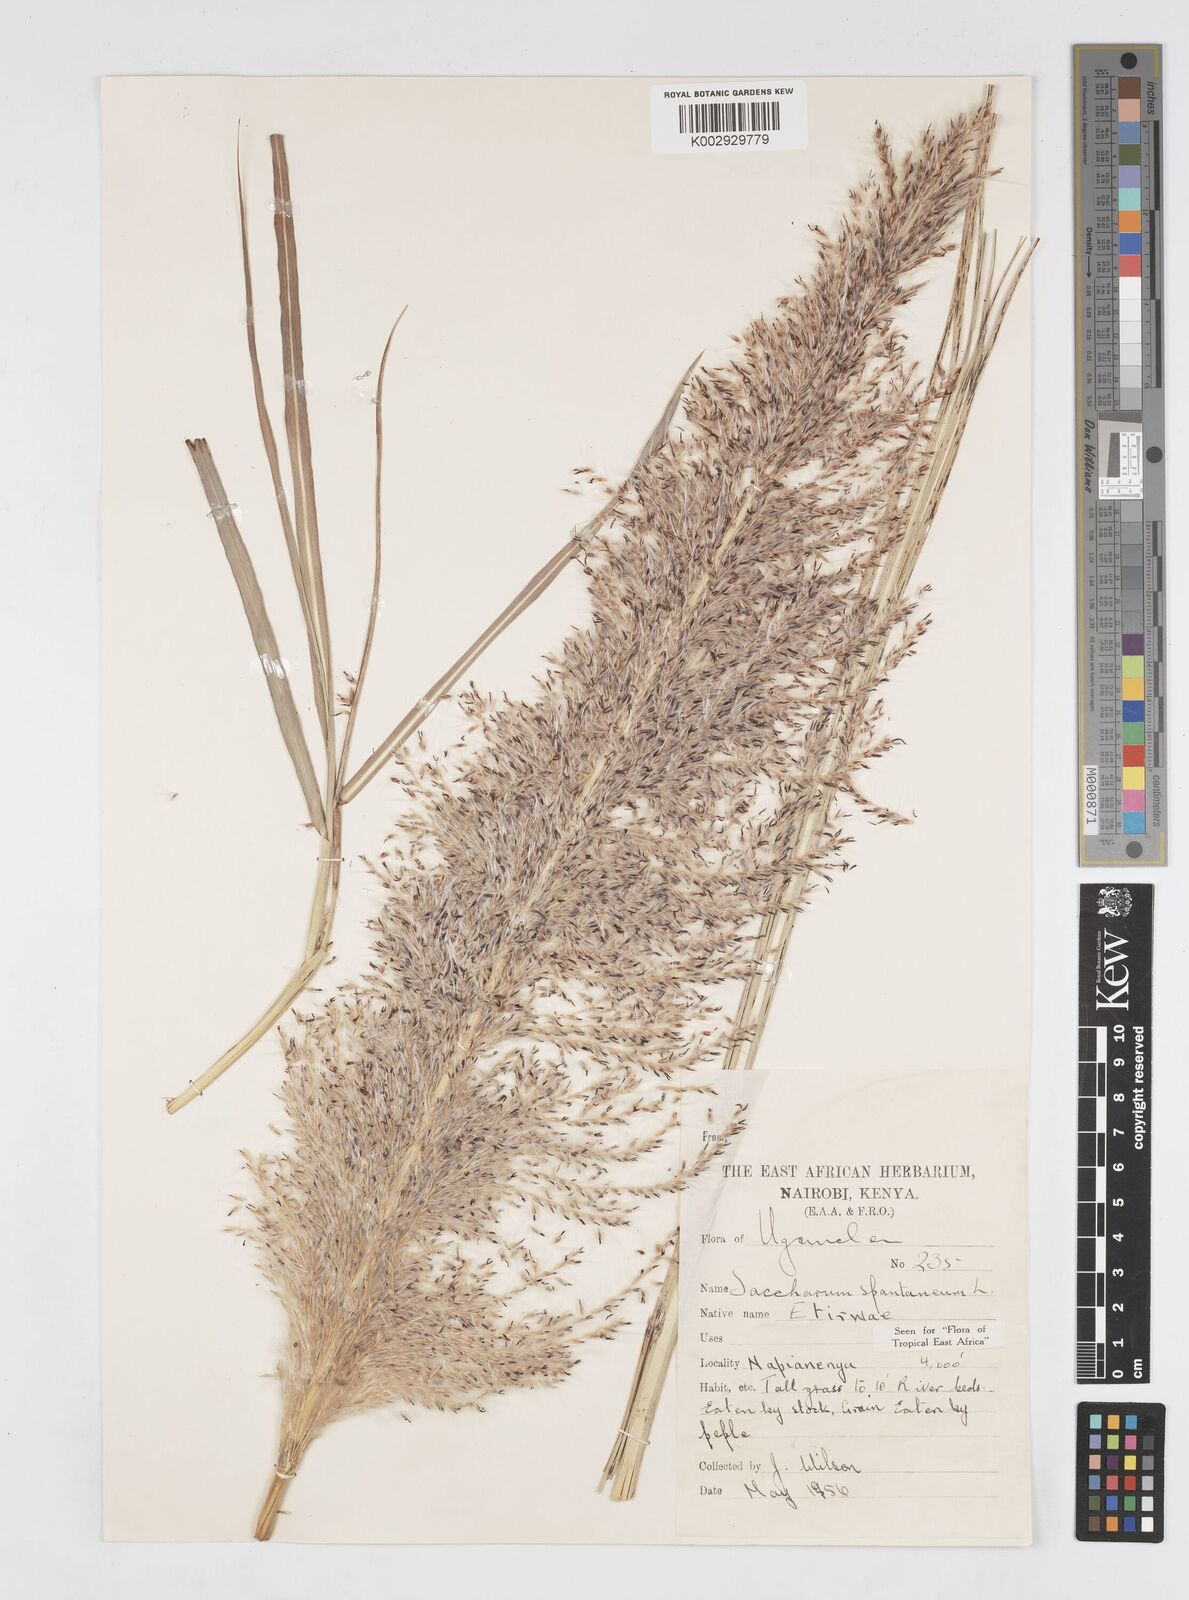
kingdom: Plantae
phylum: Tracheophyta
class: Liliopsida
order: Poales
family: Poaceae
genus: Saccharum
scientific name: Saccharum spontaneum
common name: Wild sugarcane
